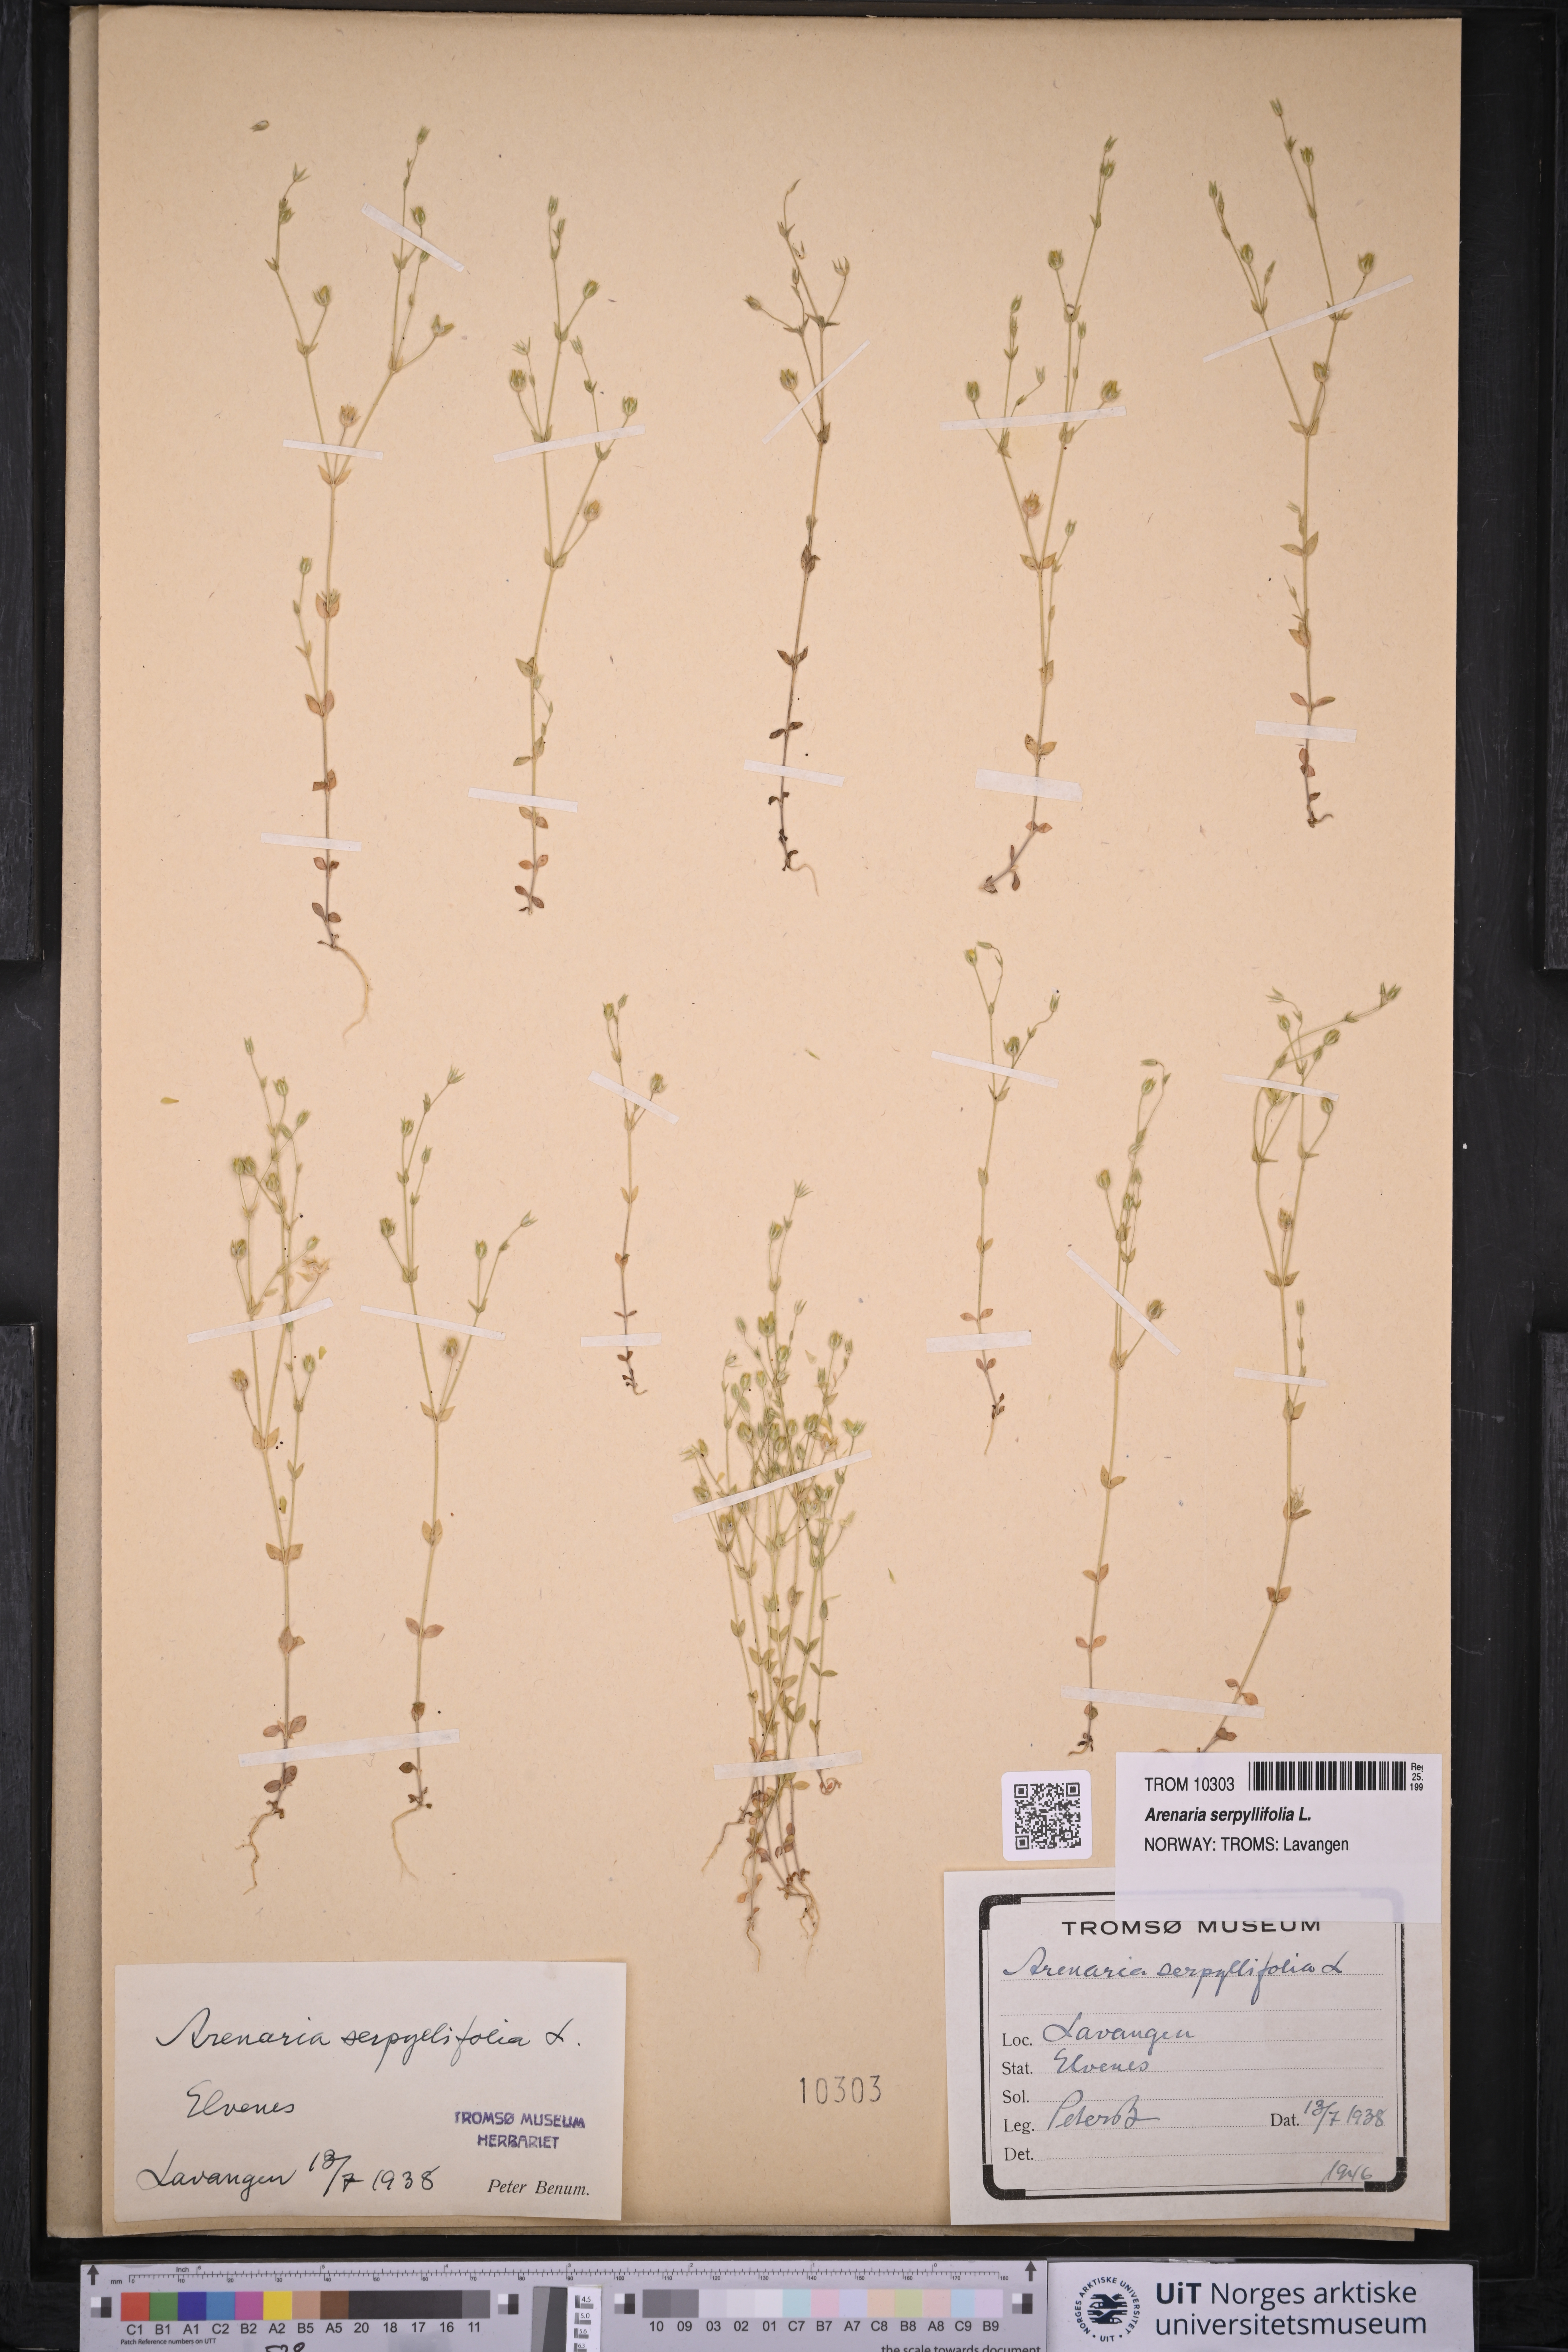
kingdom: Plantae
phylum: Tracheophyta
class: Magnoliopsida
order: Caryophyllales
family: Caryophyllaceae
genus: Arenaria
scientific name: Arenaria serpyllifolia
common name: Thyme-leaved sandwort
